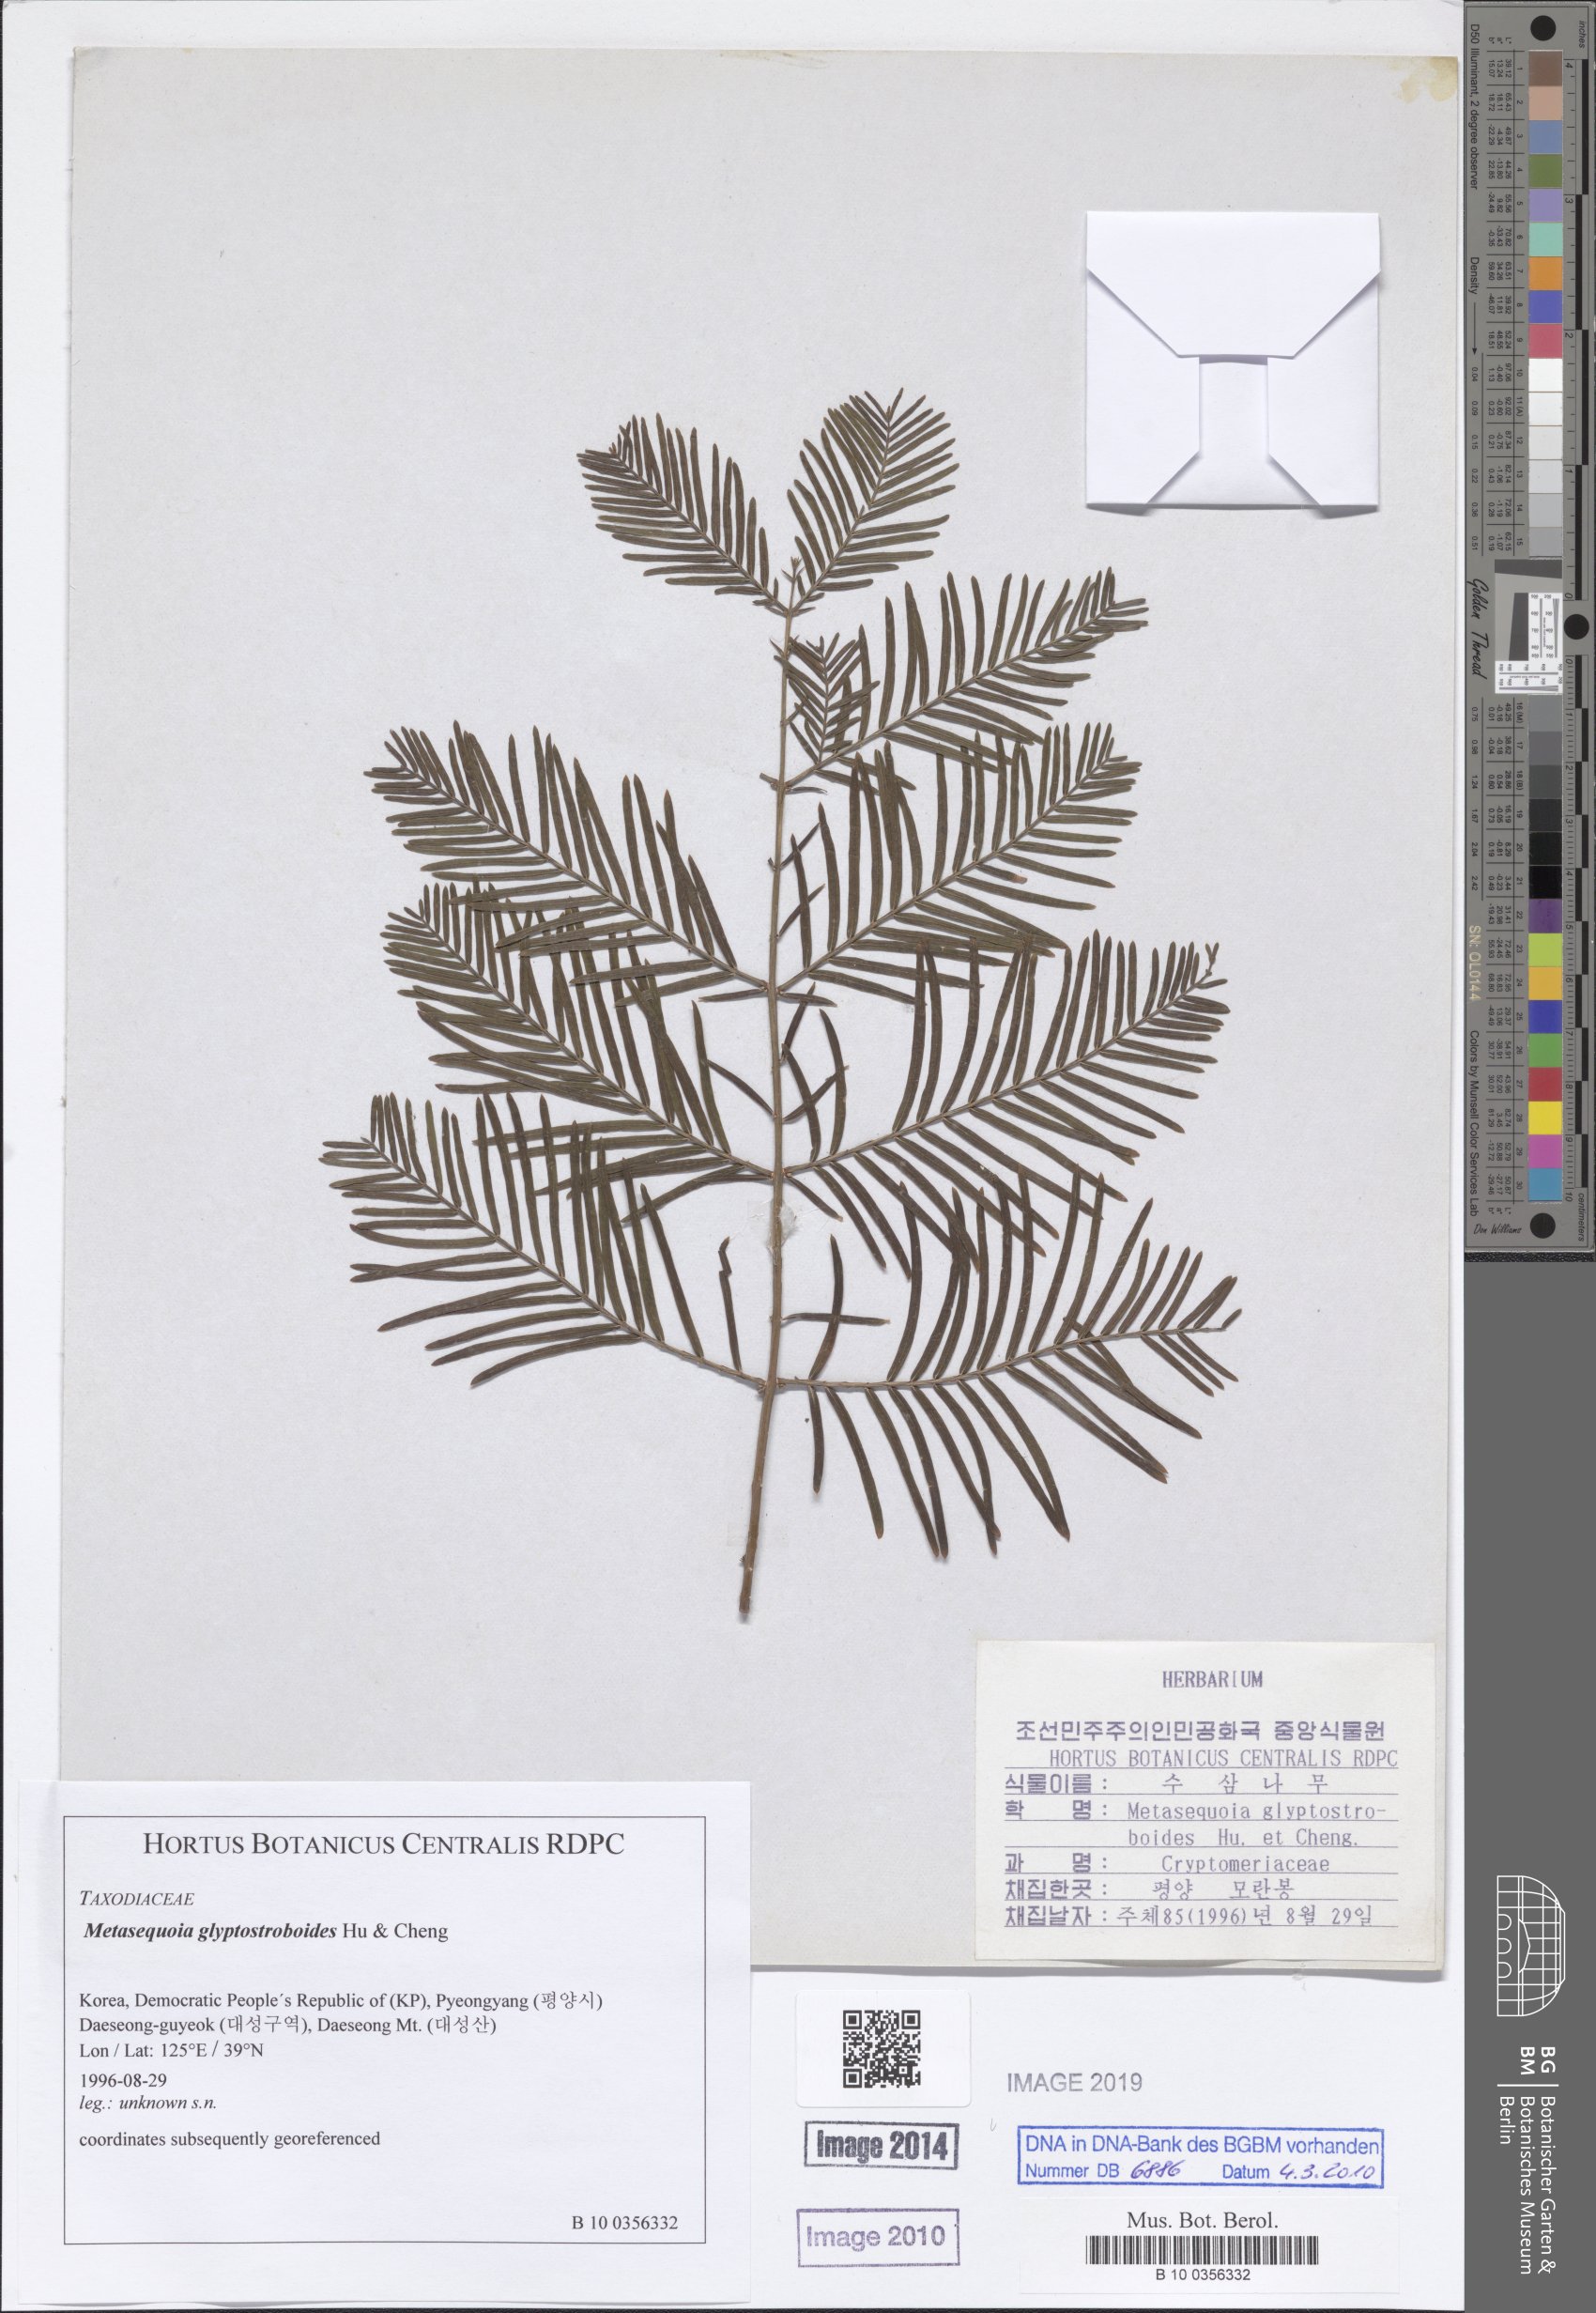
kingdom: Plantae
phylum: Tracheophyta
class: Pinopsida
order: Pinales
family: Cupressaceae
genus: Metasequoia
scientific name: Metasequoia glyptostroboides
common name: Dawn redwood
